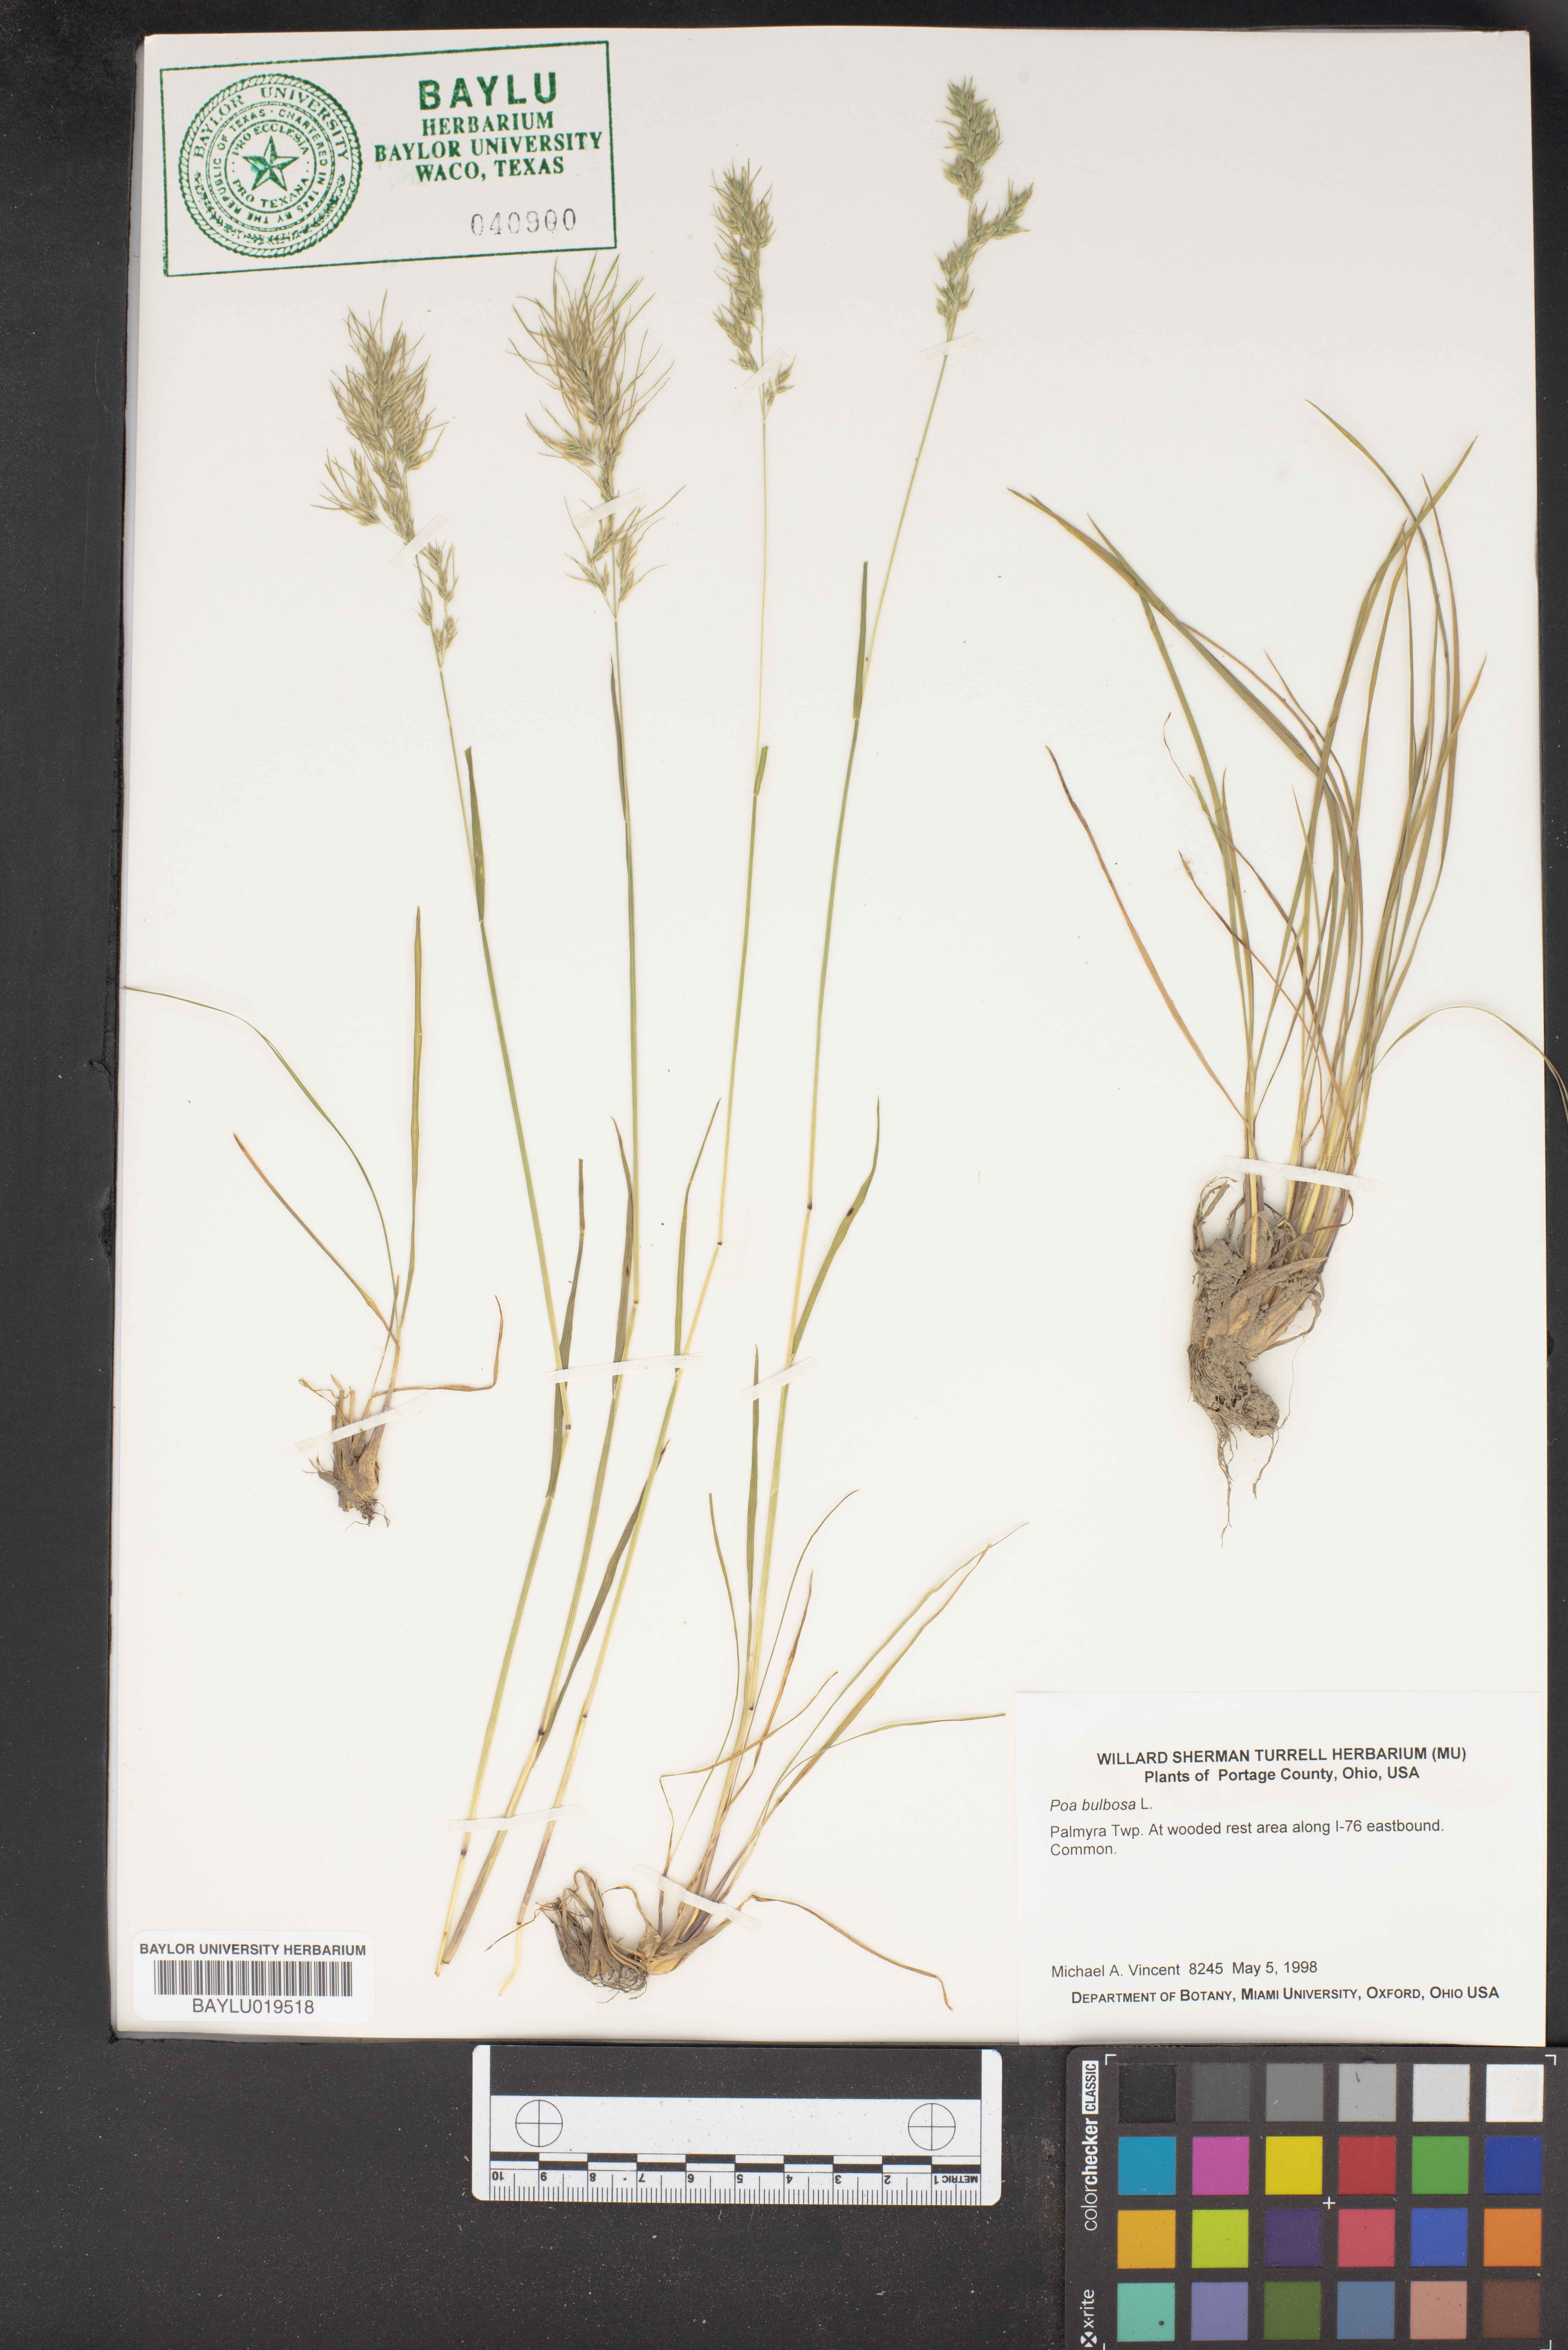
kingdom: Plantae
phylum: Tracheophyta
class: Liliopsida
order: Poales
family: Poaceae
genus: Poa
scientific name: Poa bulbosa
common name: Bulbous bluegrass
